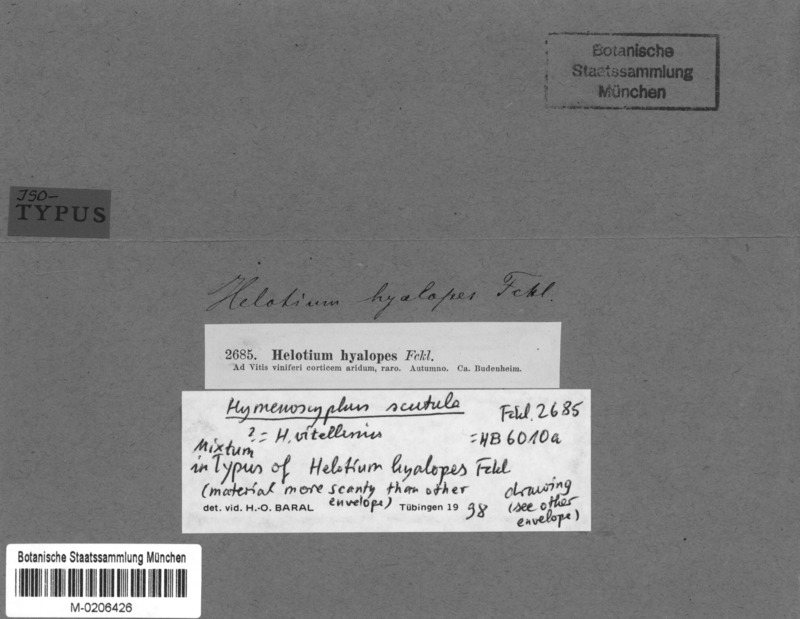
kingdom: Fungi
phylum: Ascomycota
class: Leotiomycetes
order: Helotiales
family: Helotiaceae
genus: Hymenoscyphus
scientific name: Hymenoscyphus vitigenus
